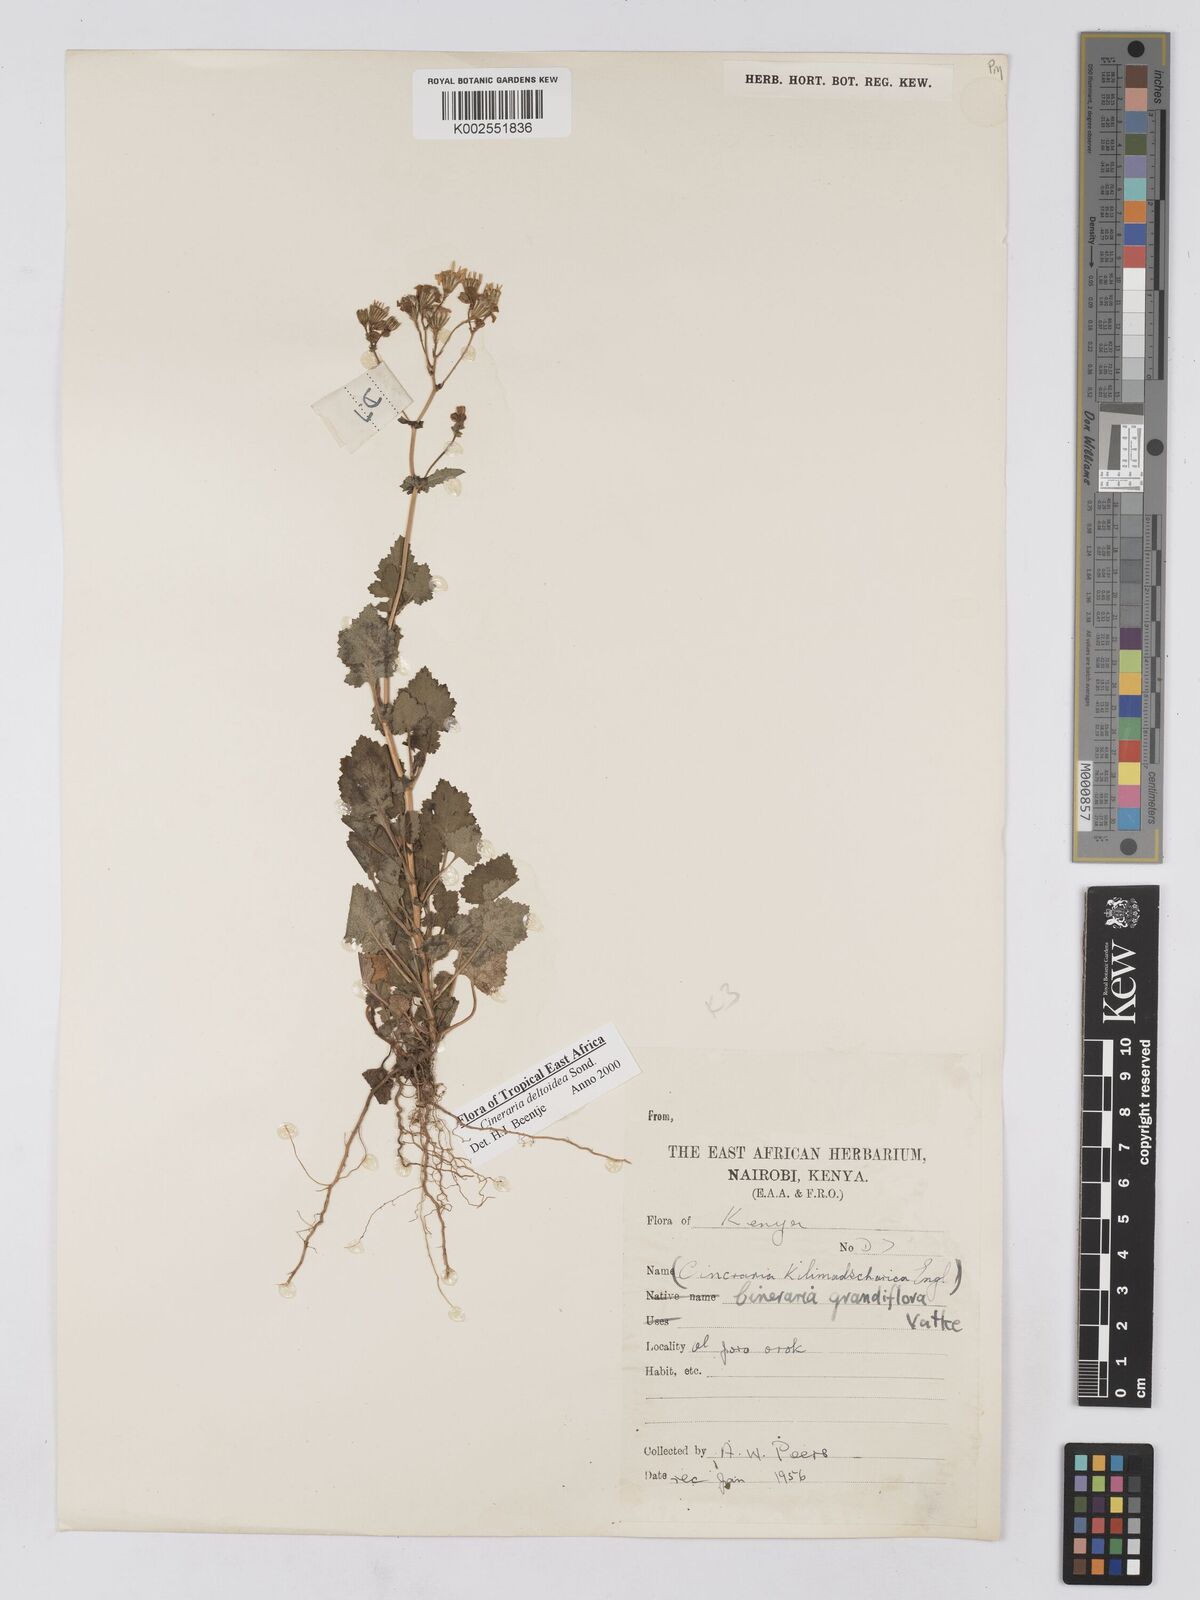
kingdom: Plantae
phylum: Tracheophyta
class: Magnoliopsida
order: Asterales
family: Asteraceae
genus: Cineraria
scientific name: Cineraria deltoidea
